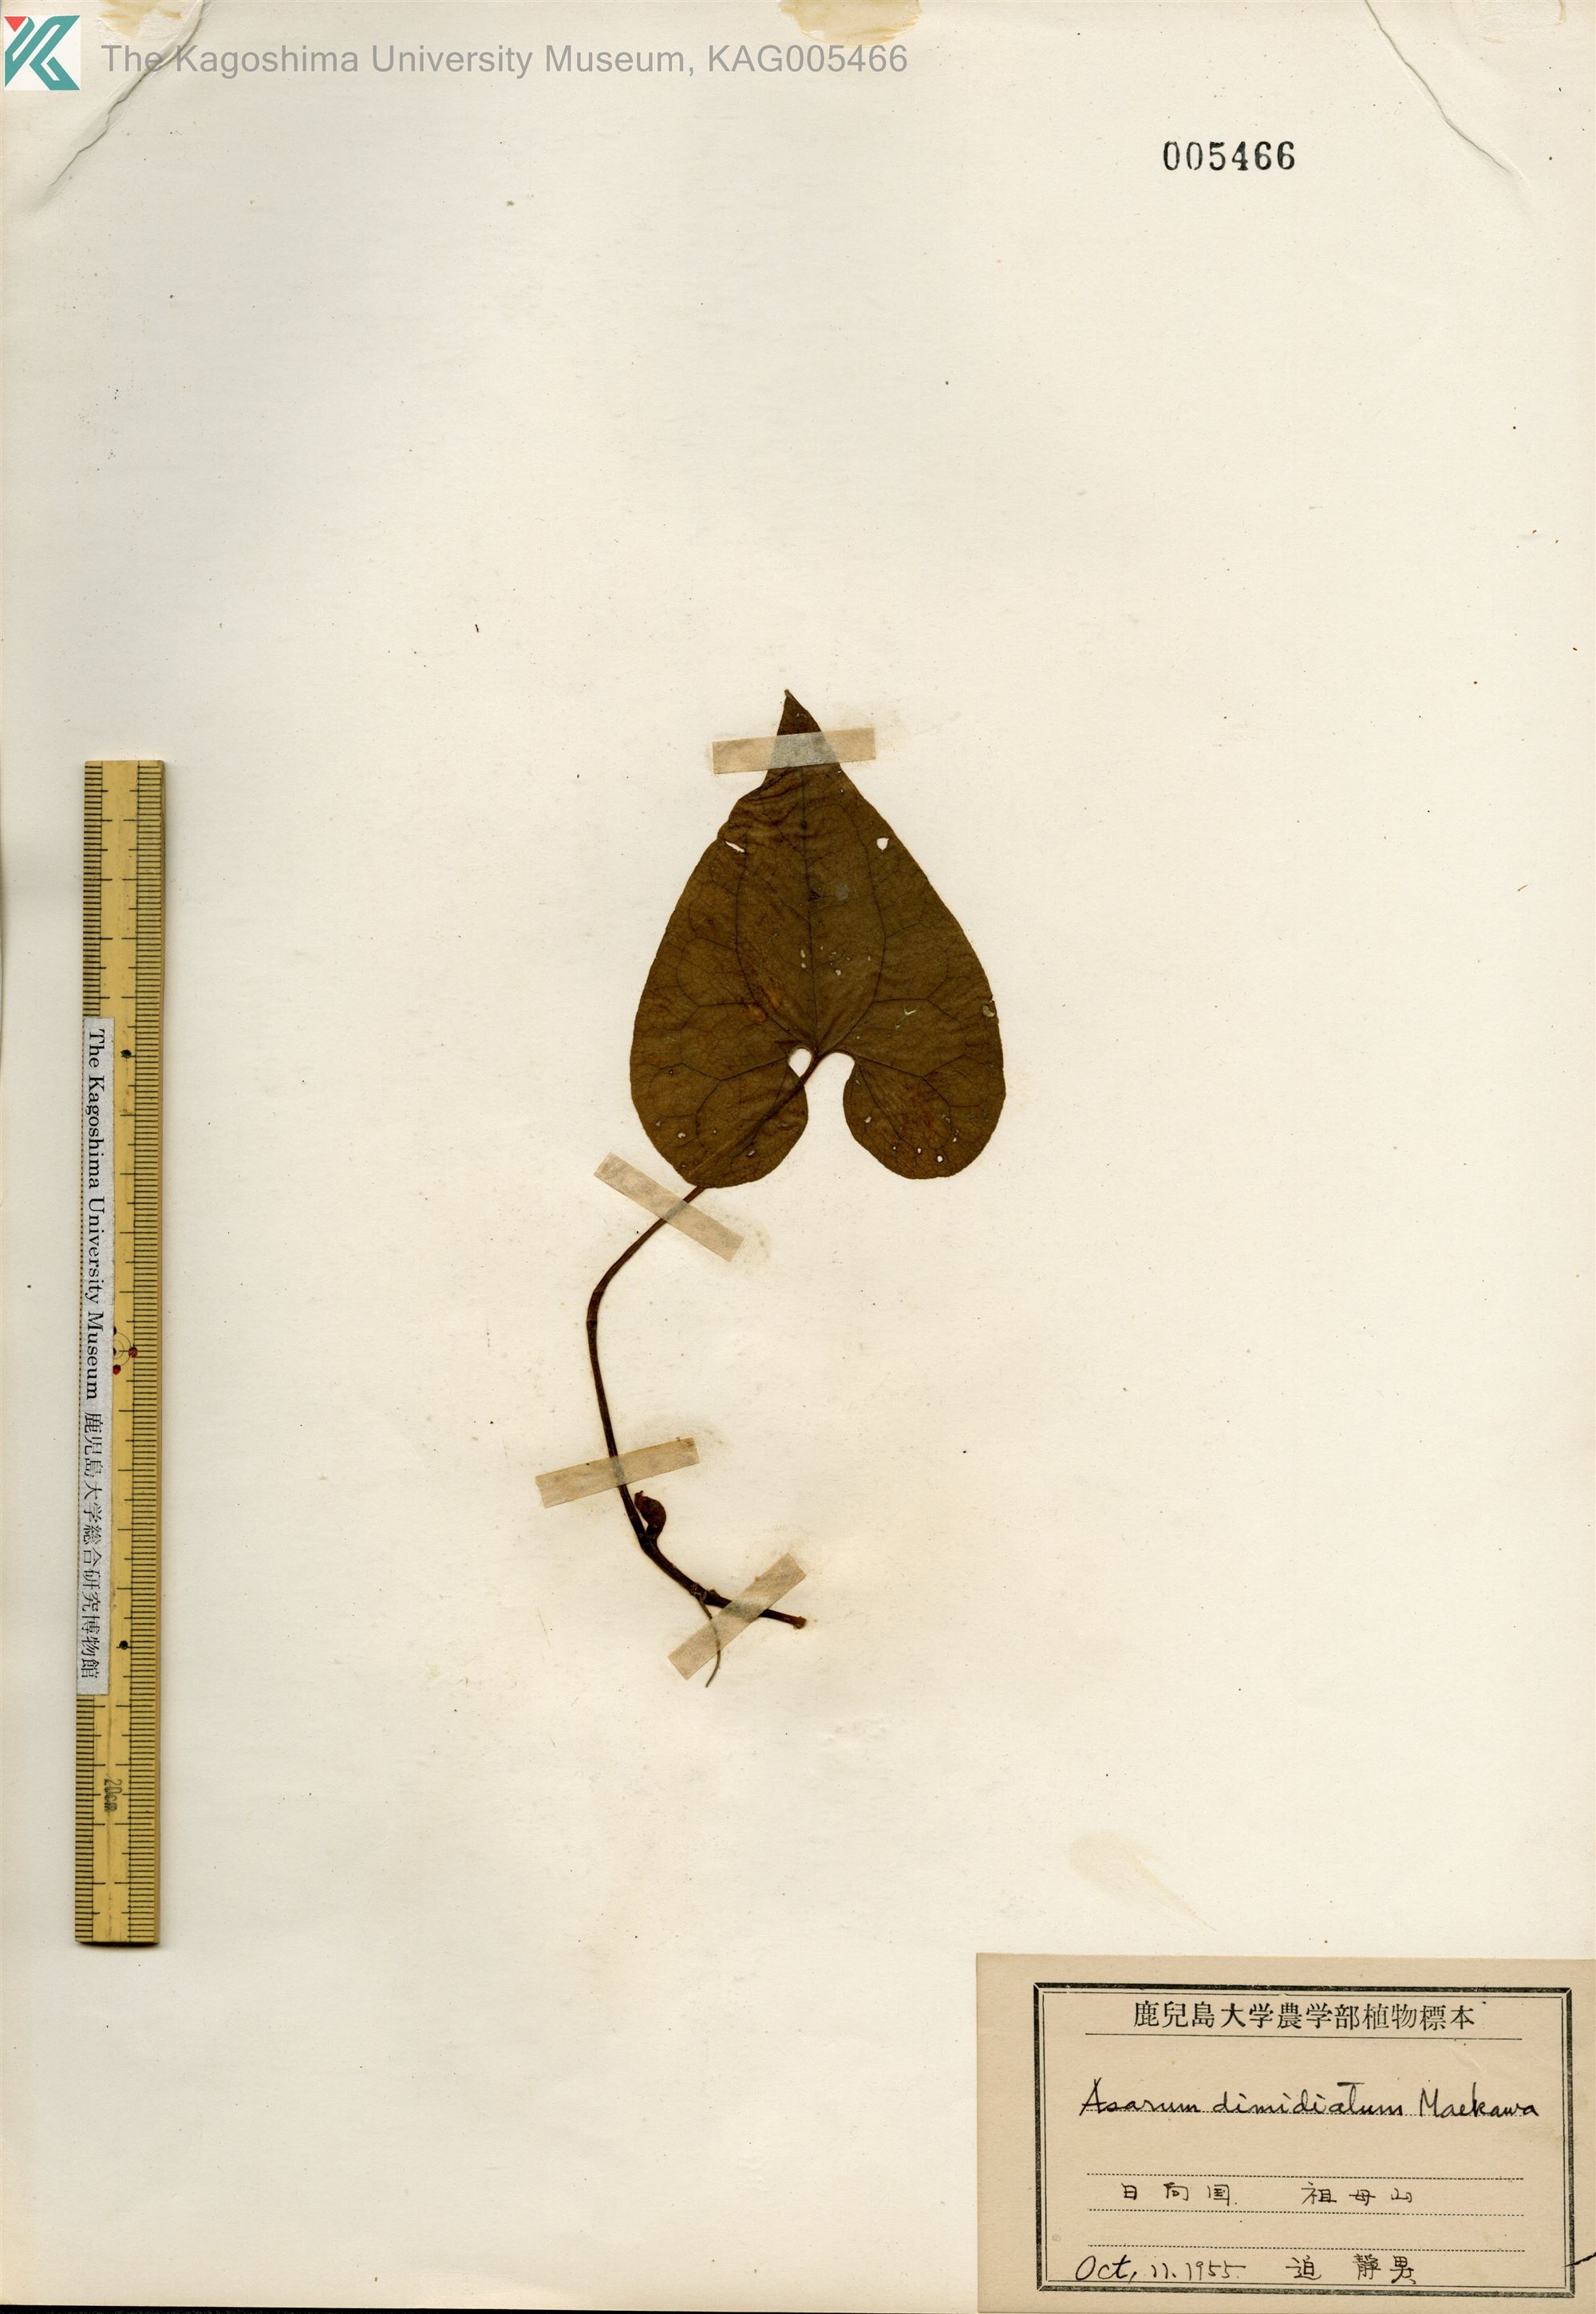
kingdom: Plantae
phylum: Tracheophyta
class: Magnoliopsida
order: Piperales
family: Aristolochiaceae
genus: Asarum
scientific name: Asarum sieboldii
